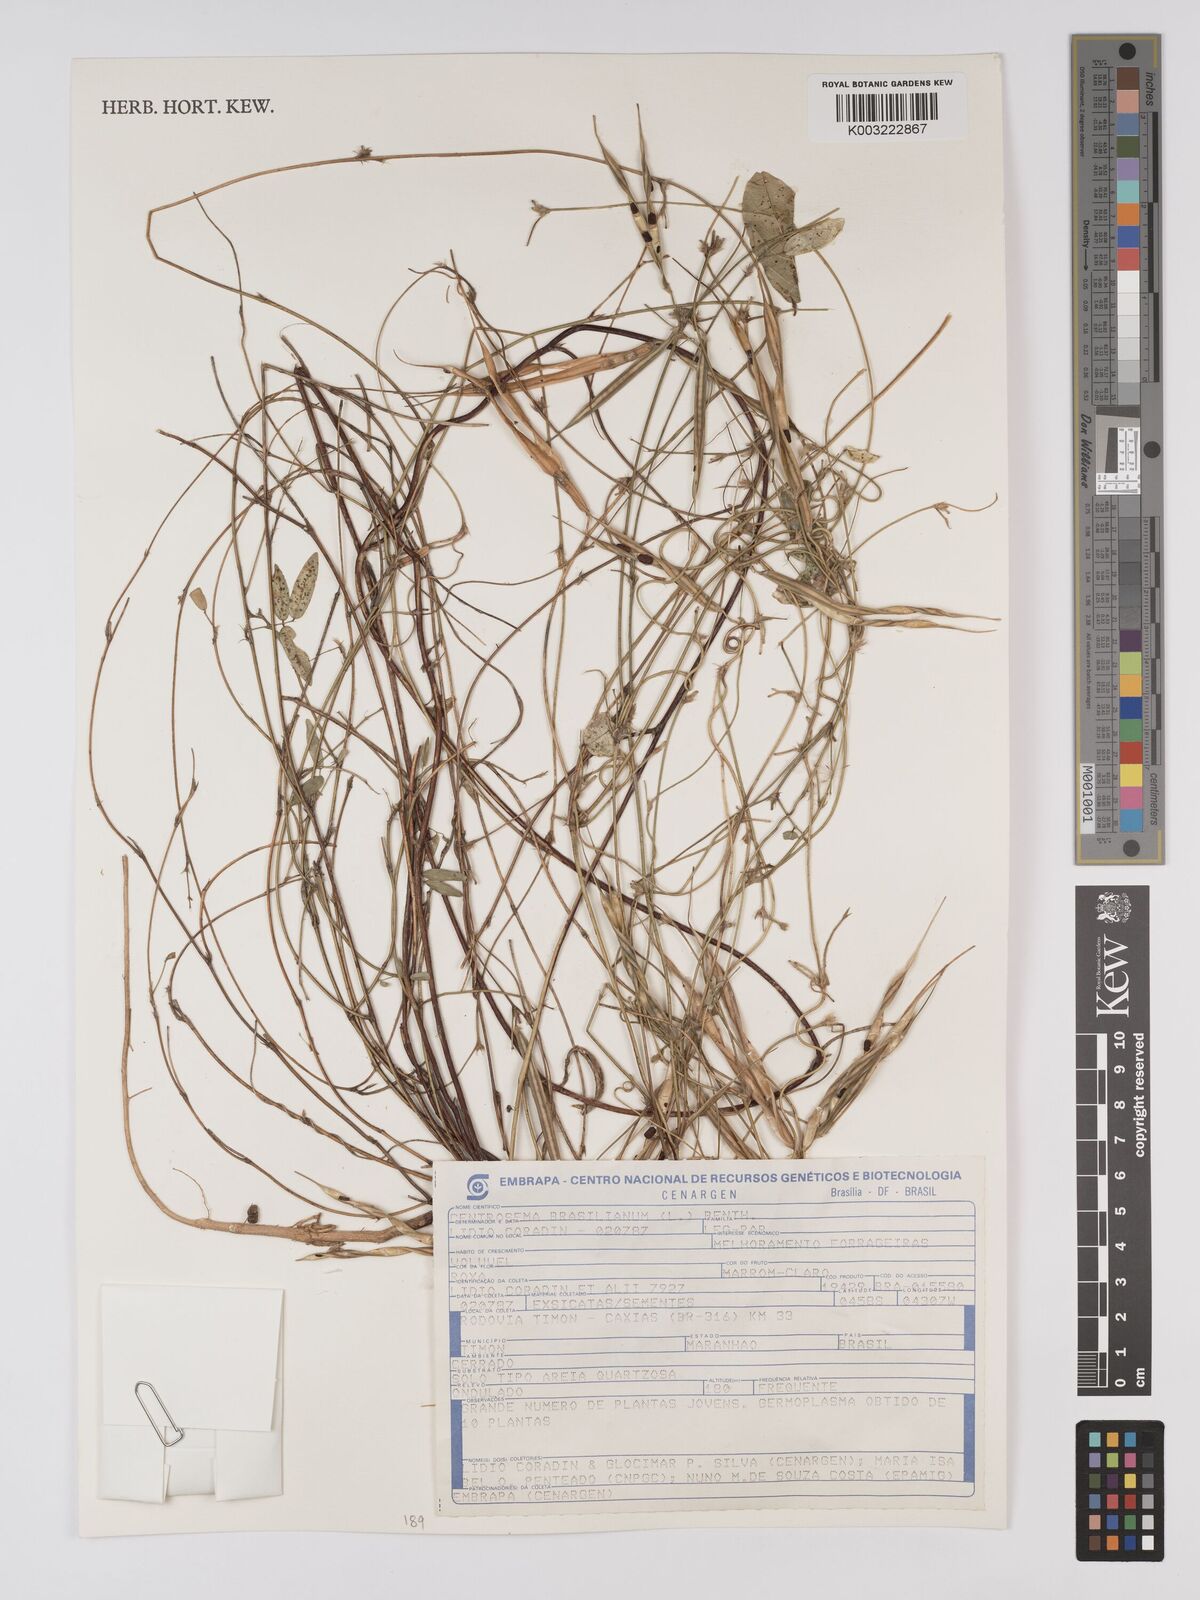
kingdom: Plantae
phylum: Tracheophyta
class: Magnoliopsida
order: Fabales
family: Fabaceae
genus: Centrosema
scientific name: Centrosema brasilianum
